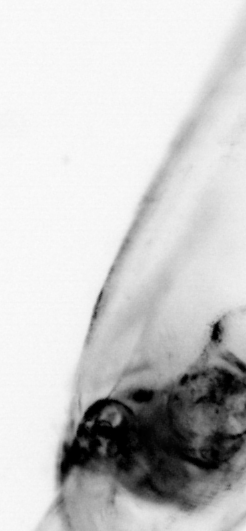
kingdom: Animalia
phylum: Chaetognatha
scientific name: Chaetognatha
